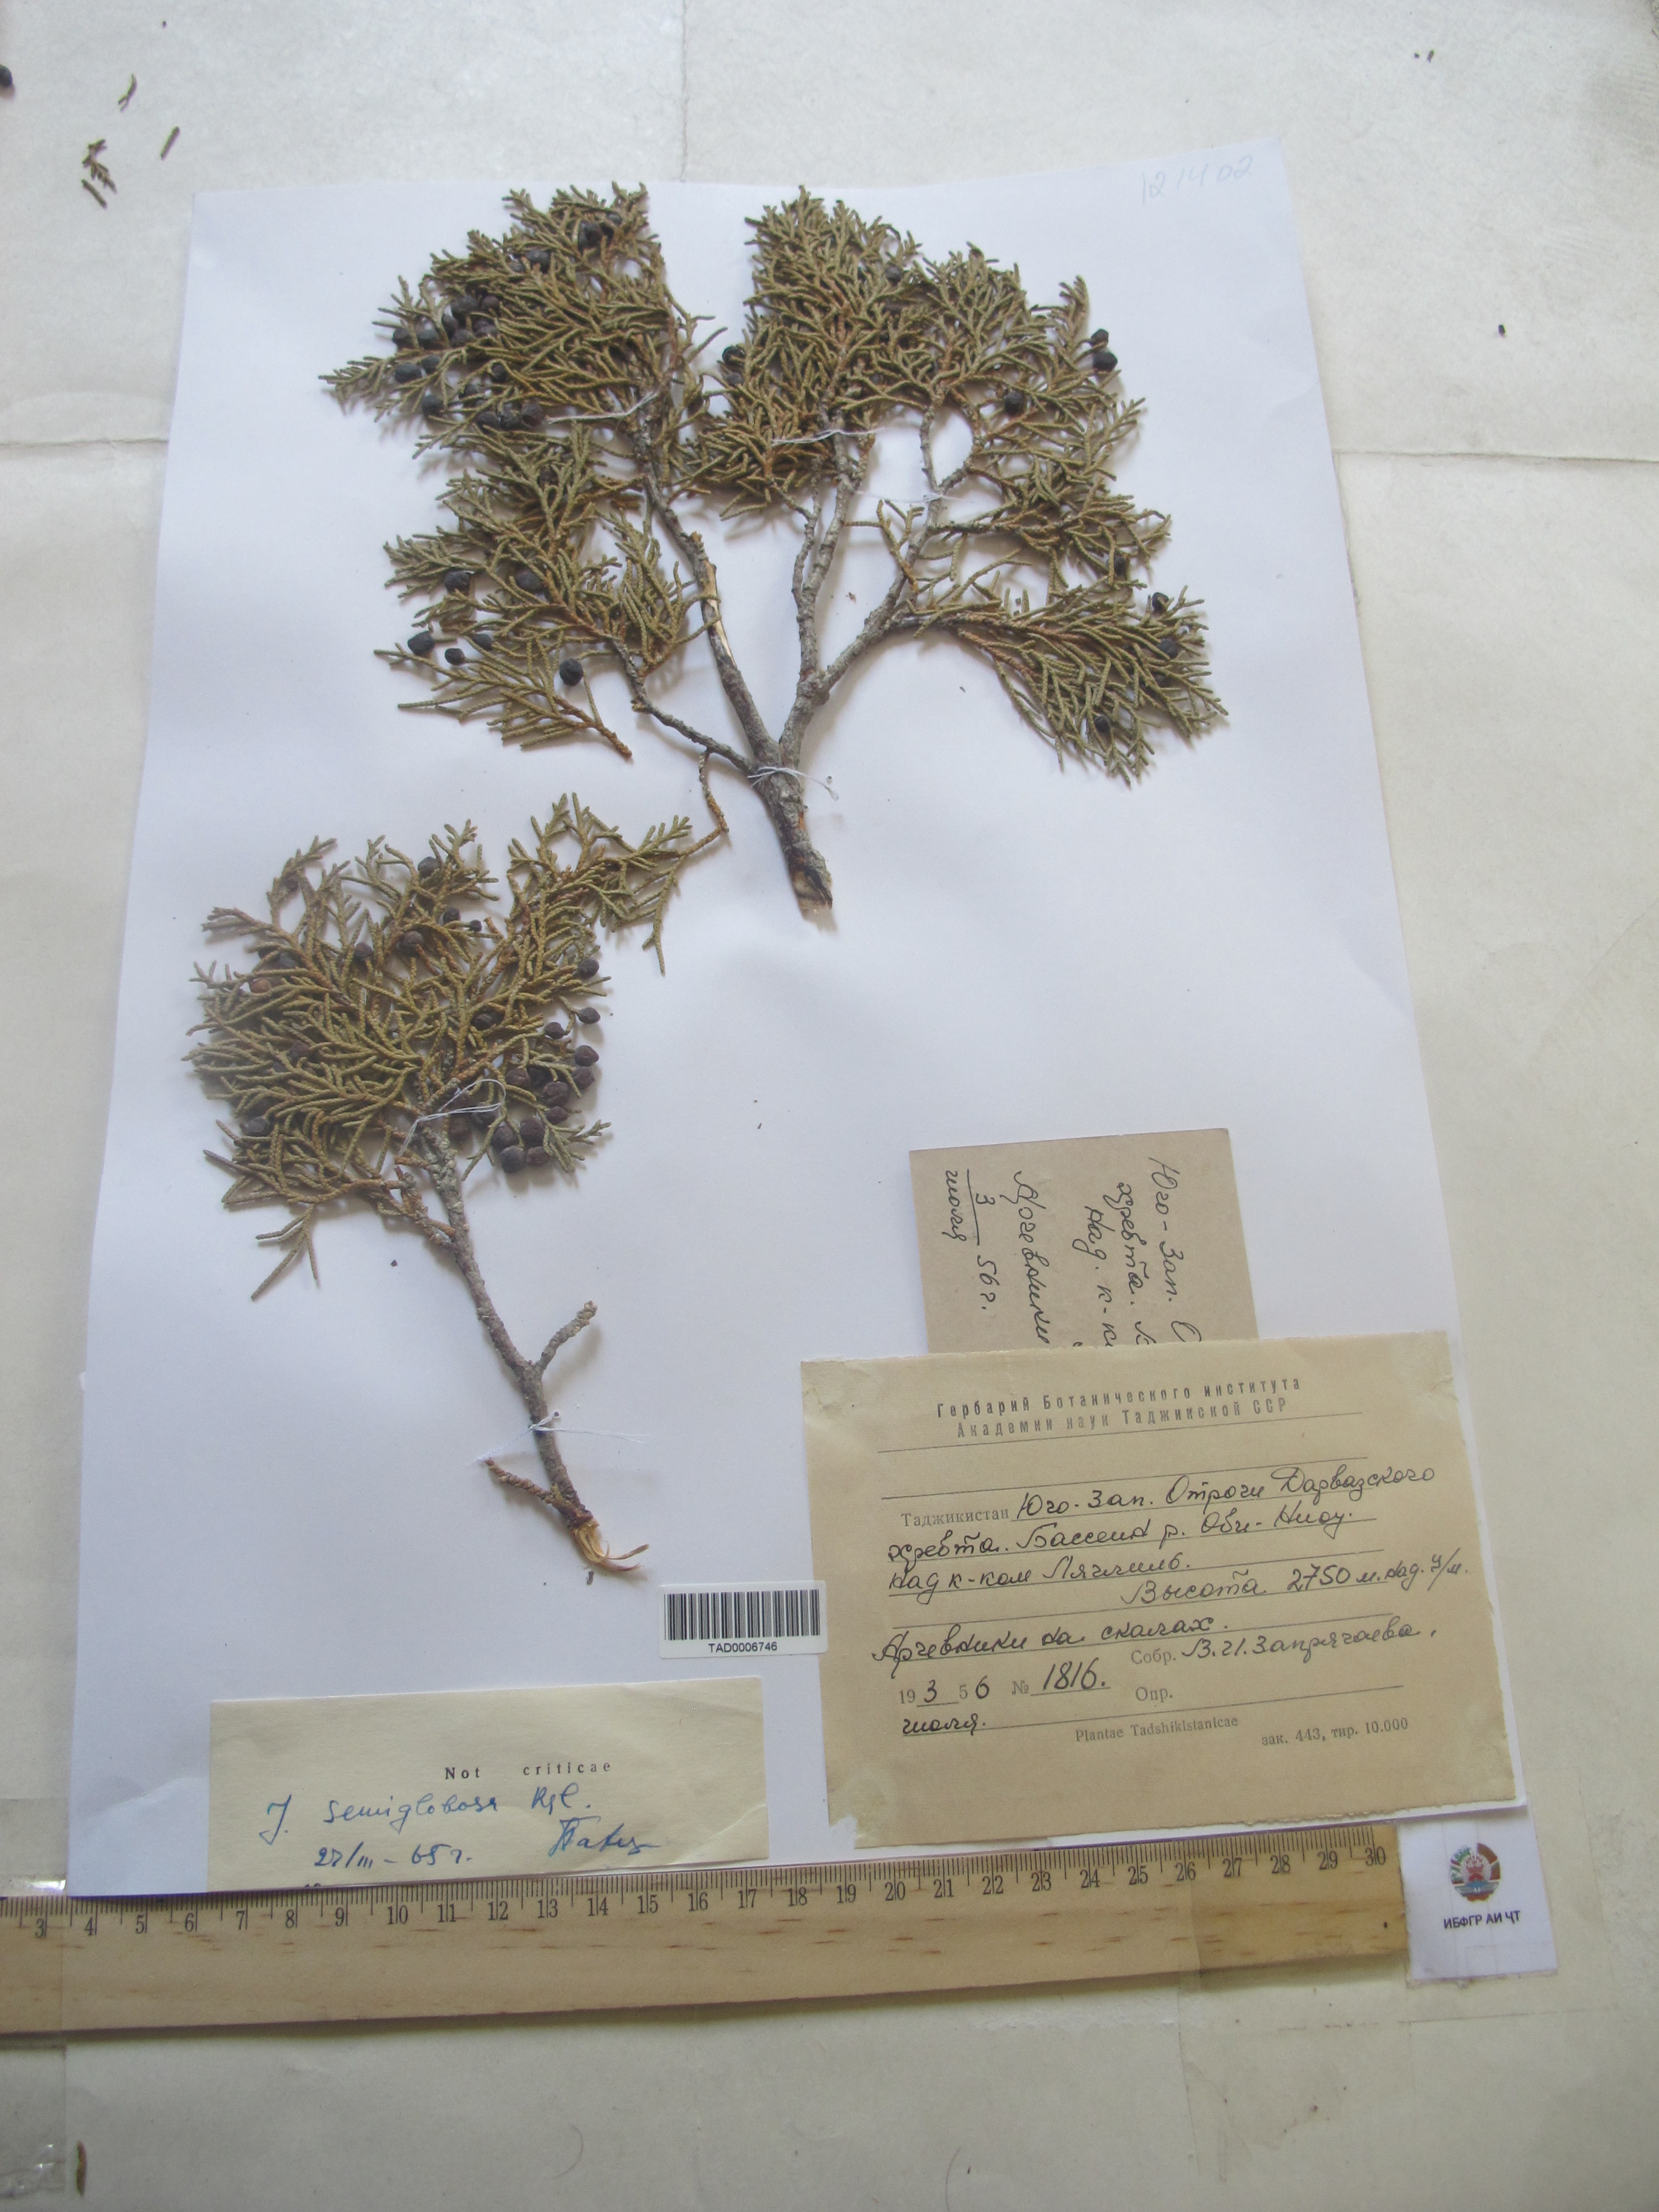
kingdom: Plantae
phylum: Tracheophyta
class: Pinopsida
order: Pinales
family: Cupressaceae
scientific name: Cupressaceae
